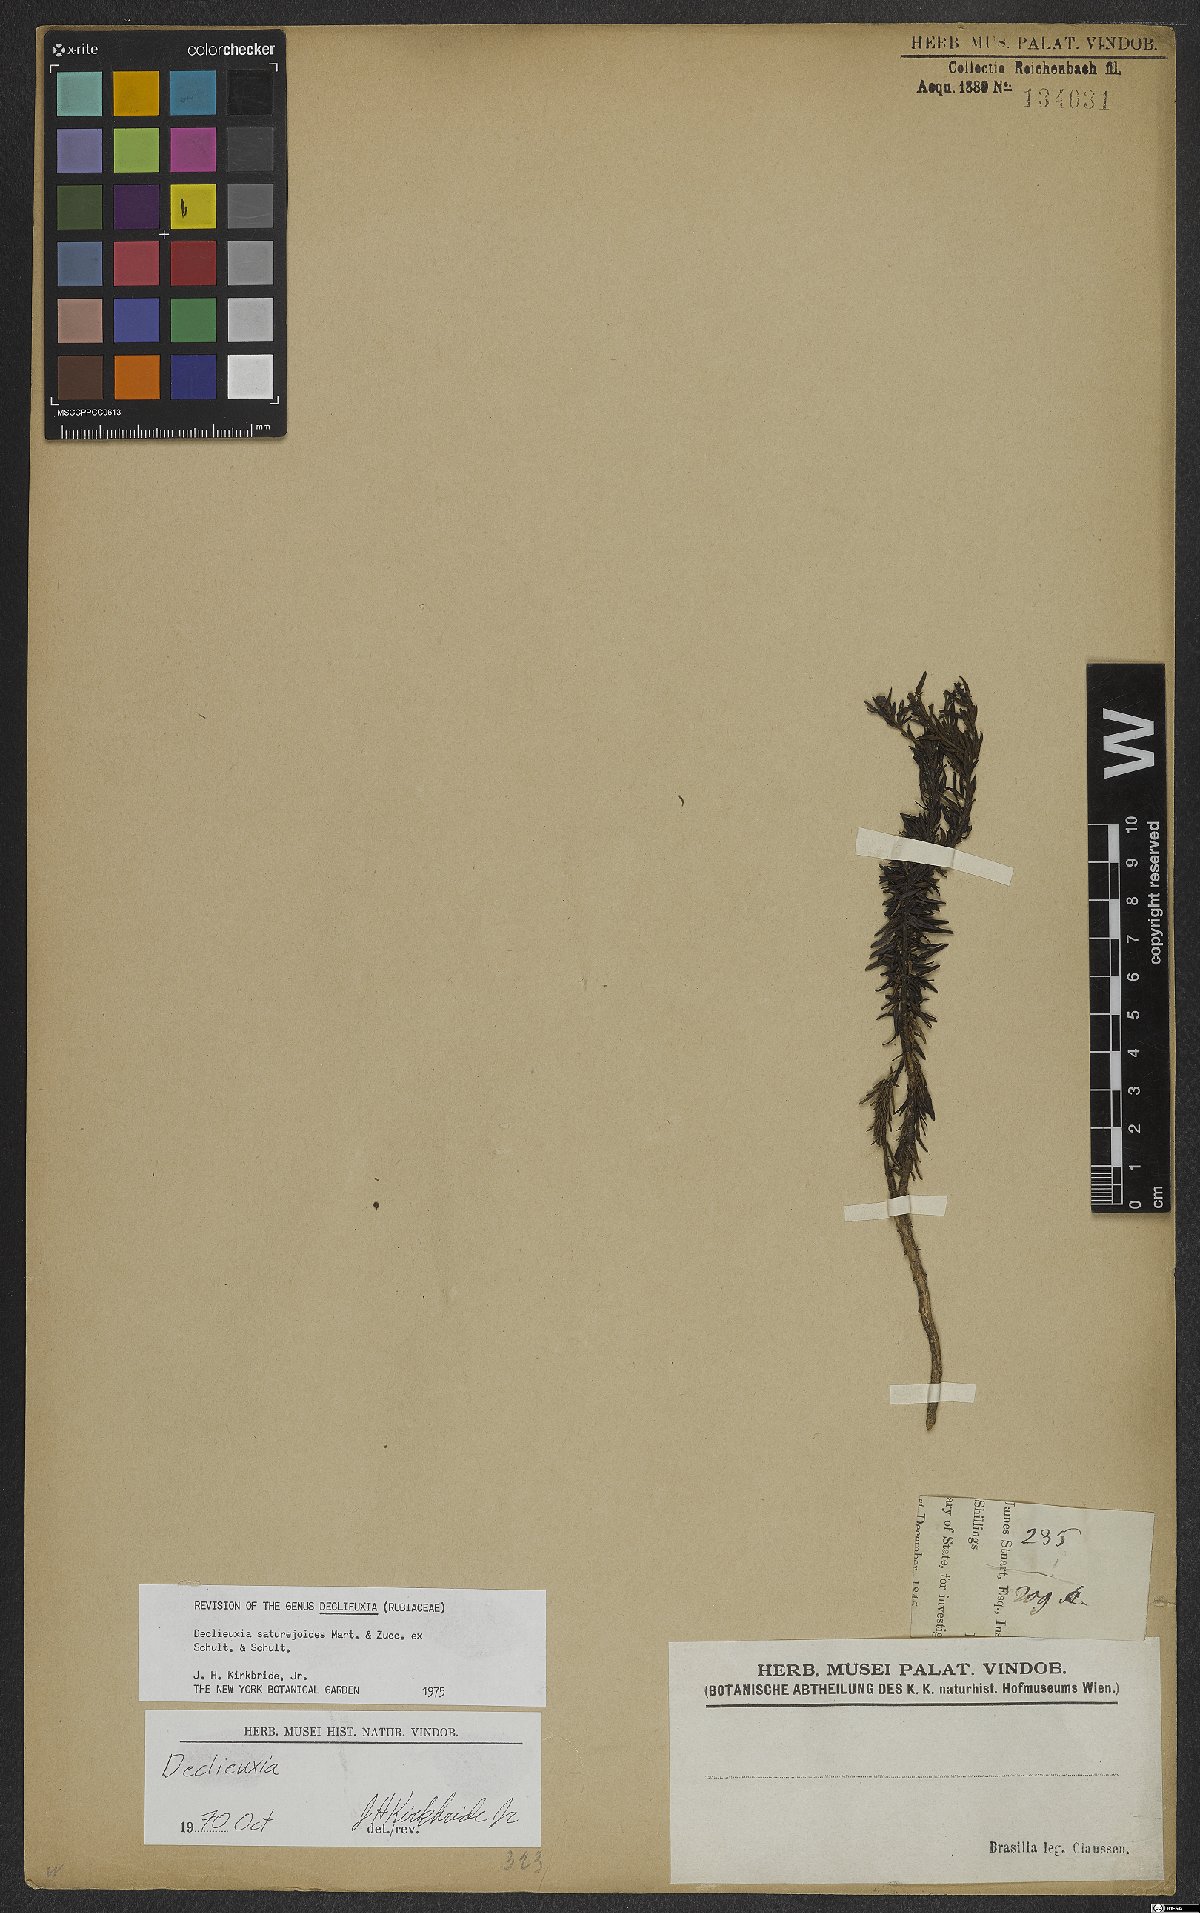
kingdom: Plantae
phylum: Tracheophyta
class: Magnoliopsida
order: Gentianales
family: Rubiaceae
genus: Declieuxia
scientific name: Declieuxia saturejoides
